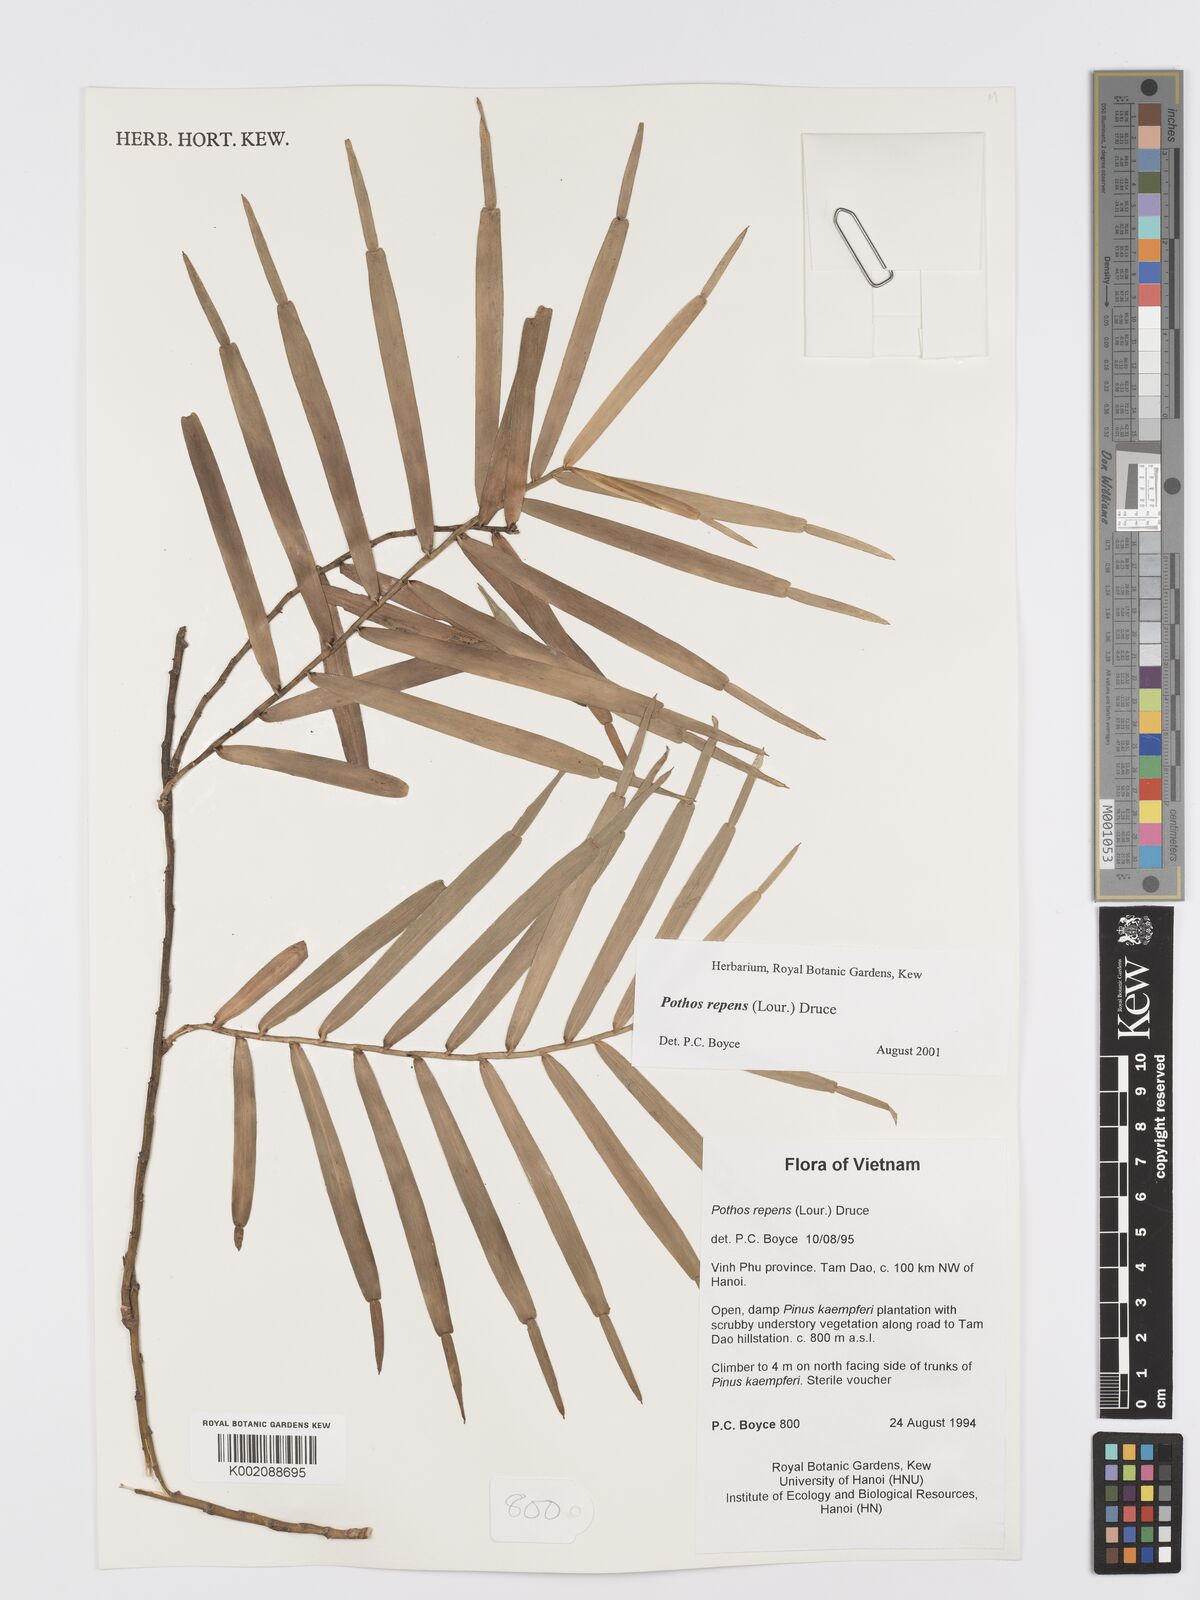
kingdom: Plantae
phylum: Tracheophyta
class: Liliopsida
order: Alismatales
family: Araceae
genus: Pothos
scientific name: Pothos repens
